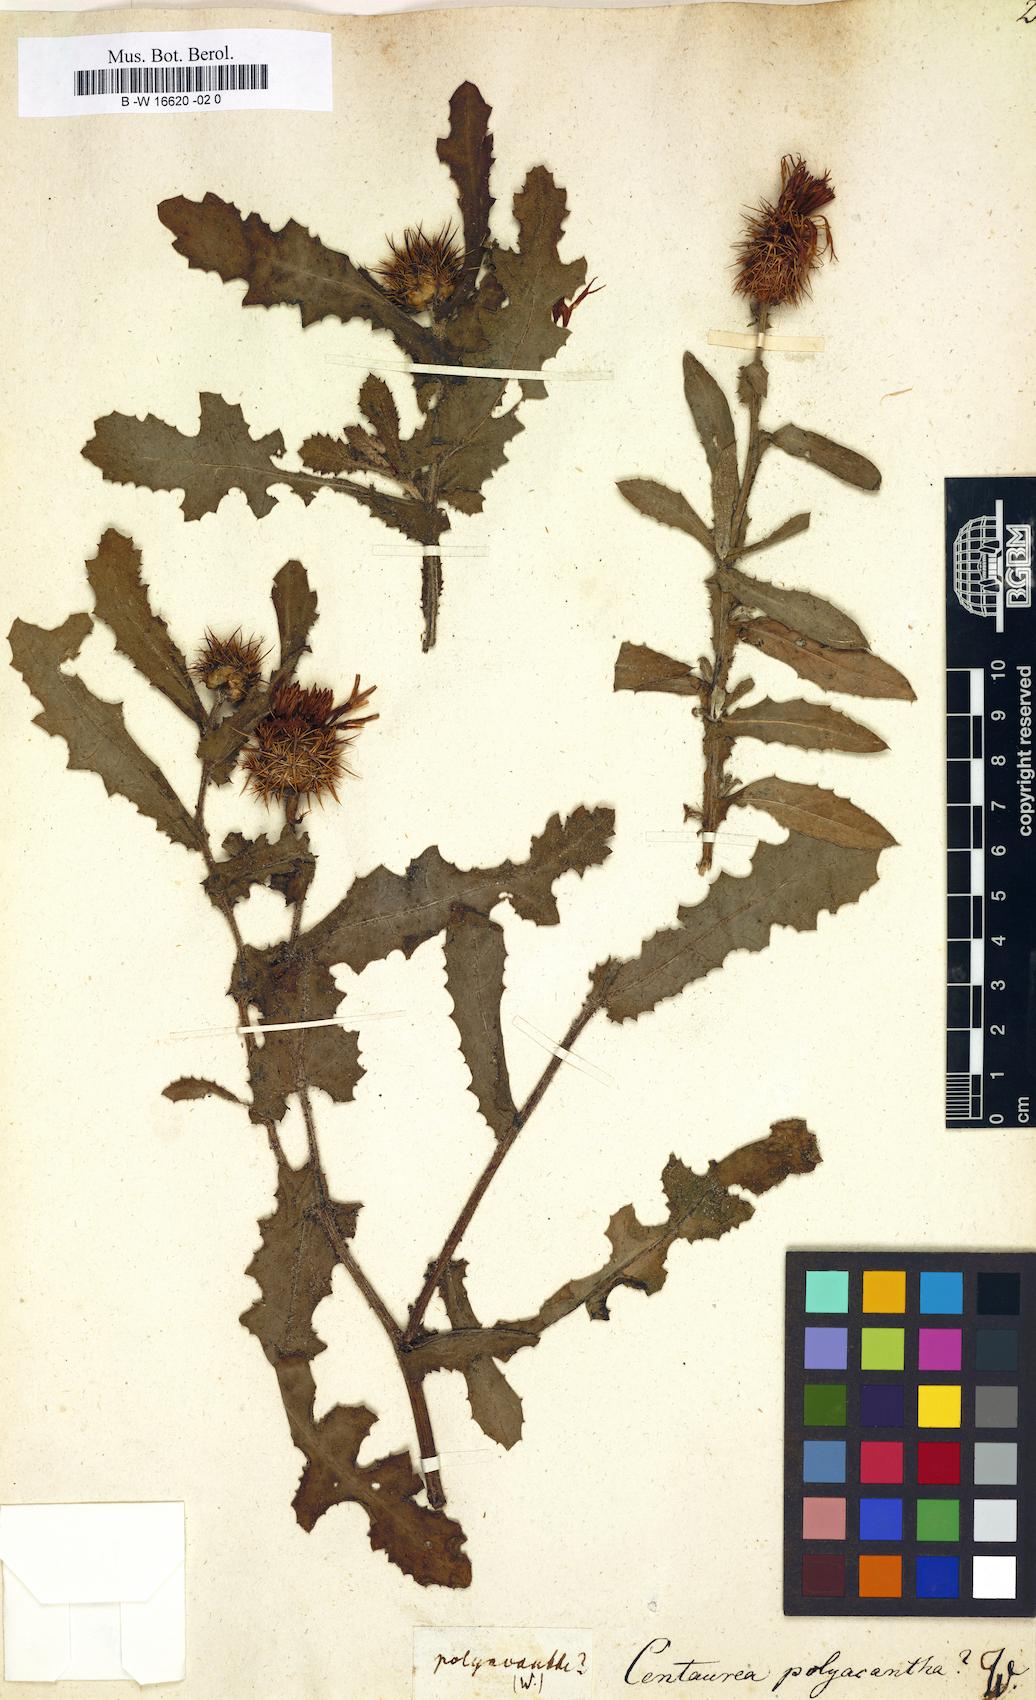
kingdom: Plantae
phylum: Tracheophyta
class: Magnoliopsida
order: Asterales
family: Asteraceae
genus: Centaurea
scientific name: Centaurea polyacantha
